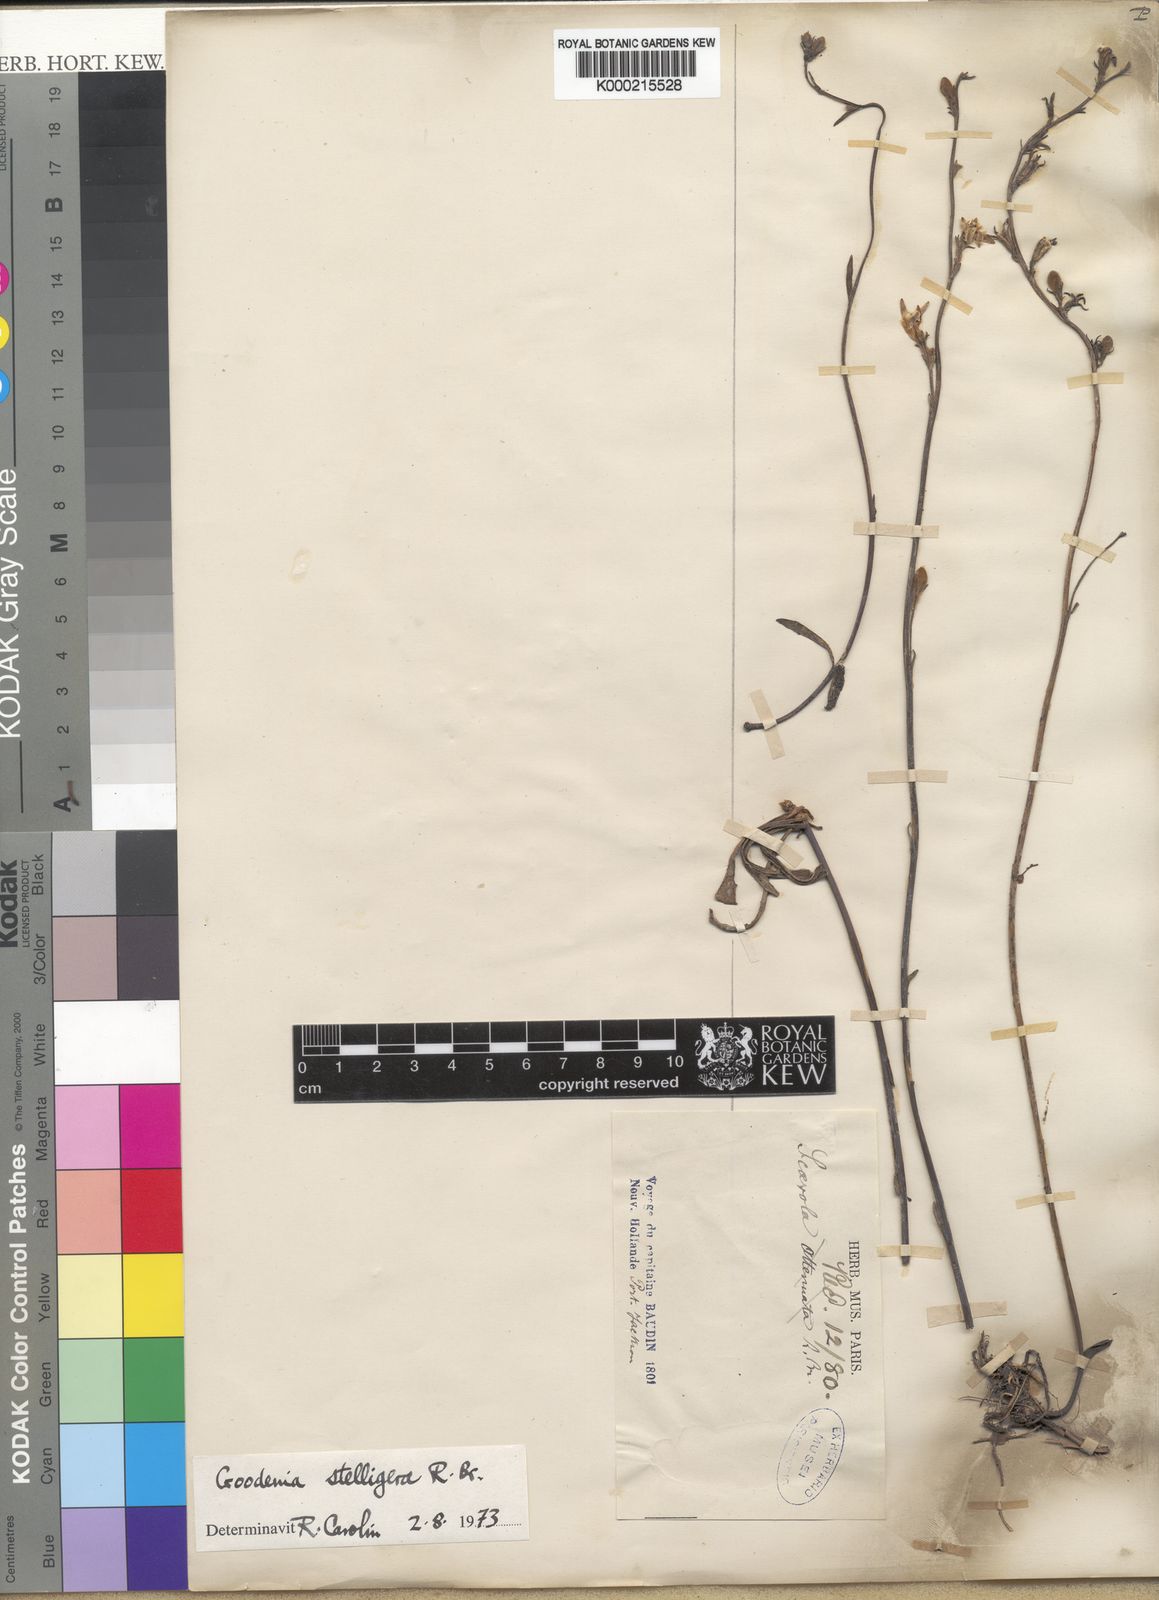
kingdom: Plantae
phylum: Tracheophyta
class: Magnoliopsida
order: Asterales
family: Goodeniaceae
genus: Goodenia
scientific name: Goodenia stelligera
